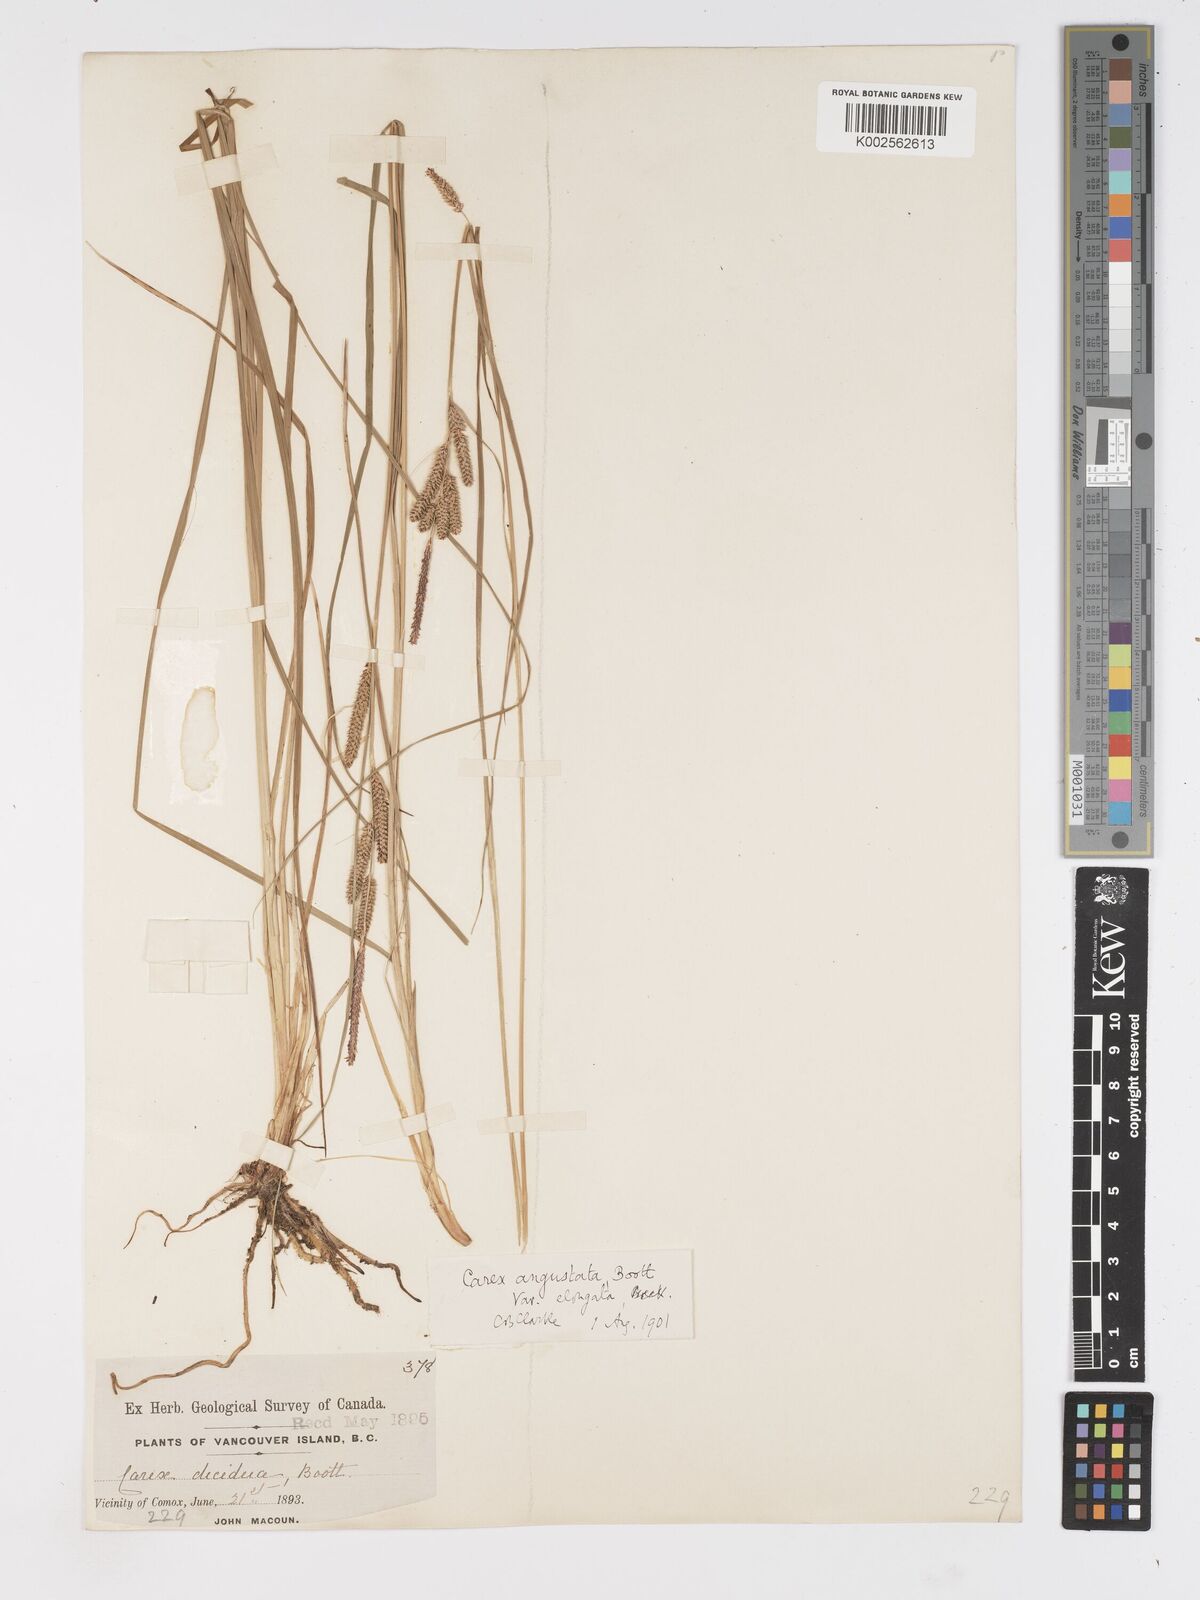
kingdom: Plantae
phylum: Tracheophyta
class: Liliopsida
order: Poales
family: Cyperaceae
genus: Carex
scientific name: Carex stricta
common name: Hummock sedge
